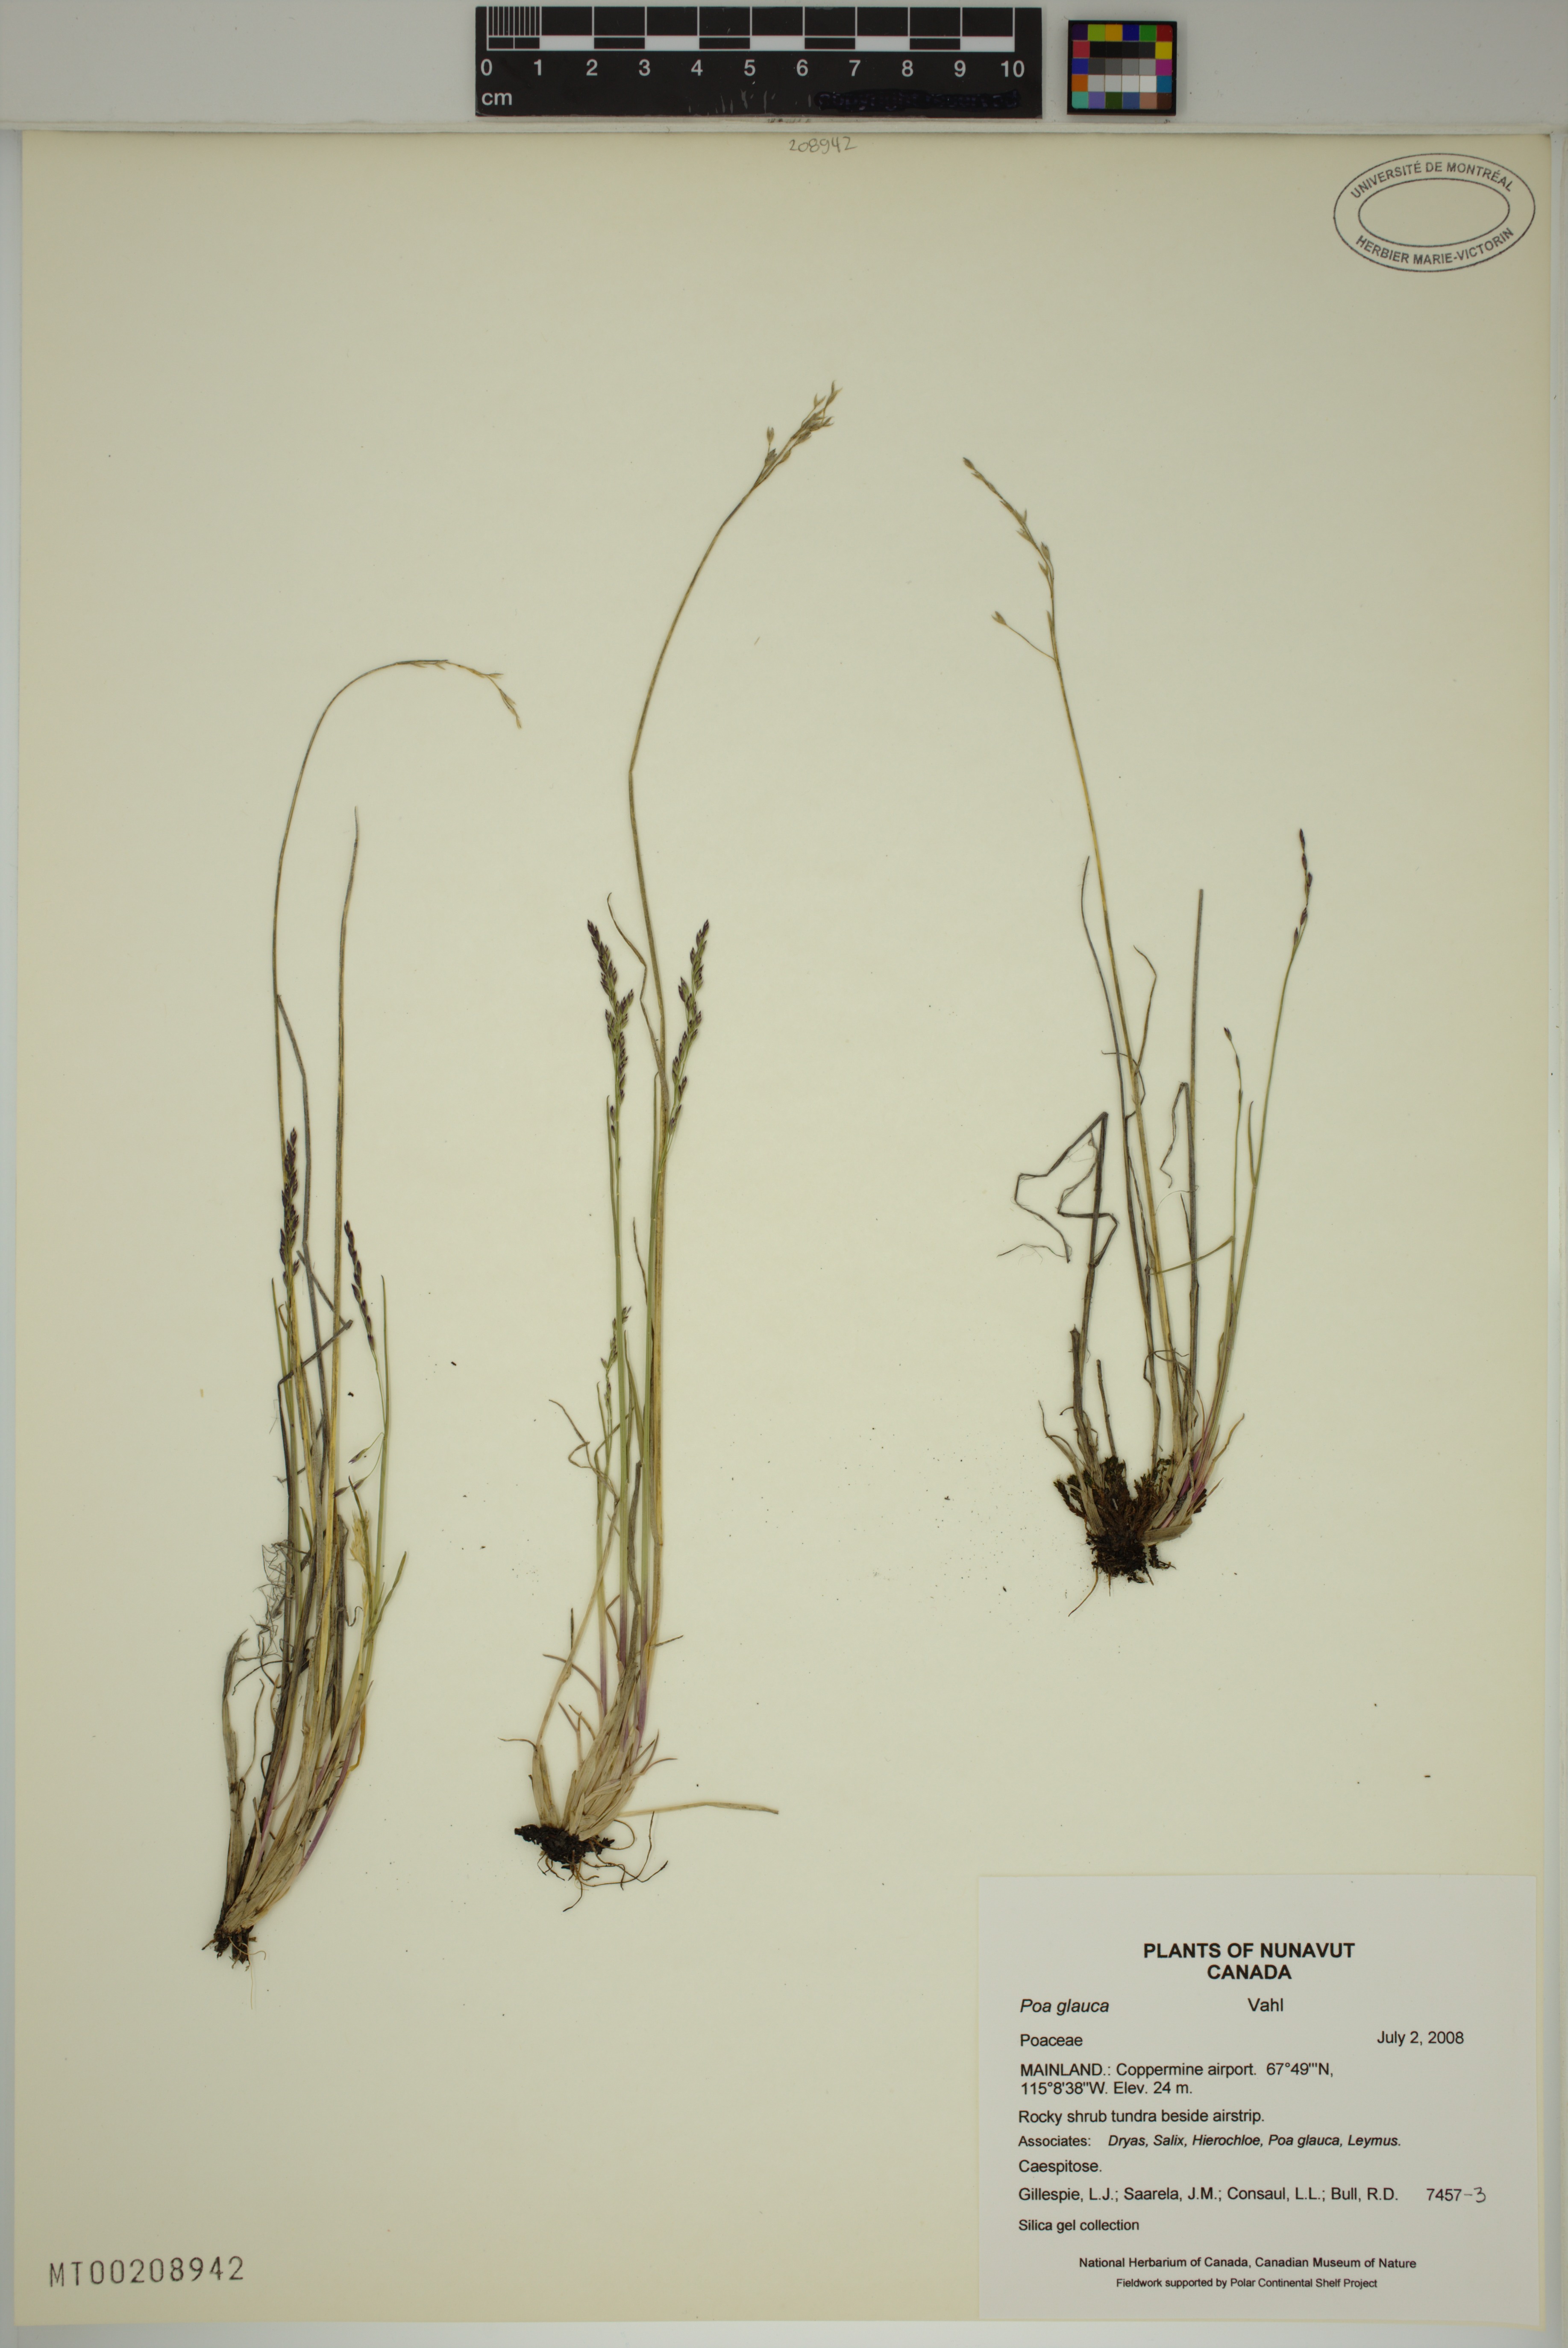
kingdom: Plantae
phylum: Tracheophyta
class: Liliopsida
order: Poales
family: Poaceae
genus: Poa
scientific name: Poa glauca
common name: Glaucous bluegrass
